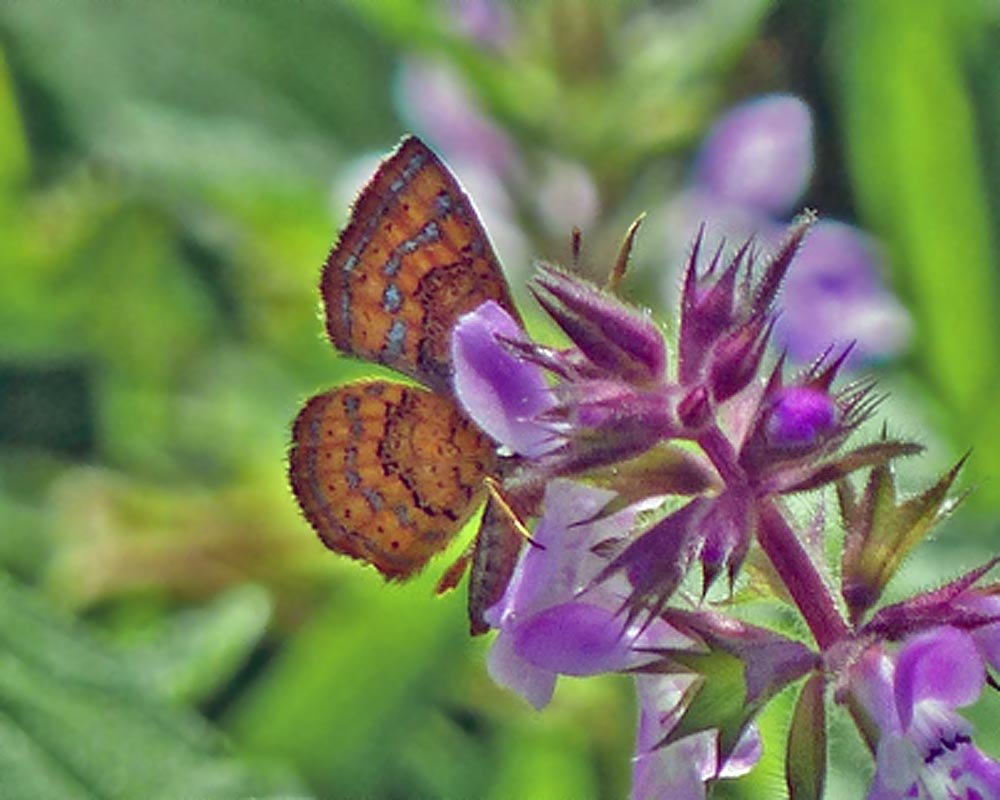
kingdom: Animalia
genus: Calephelis
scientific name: Calephelis perditalis
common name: Rounded Metalmark
